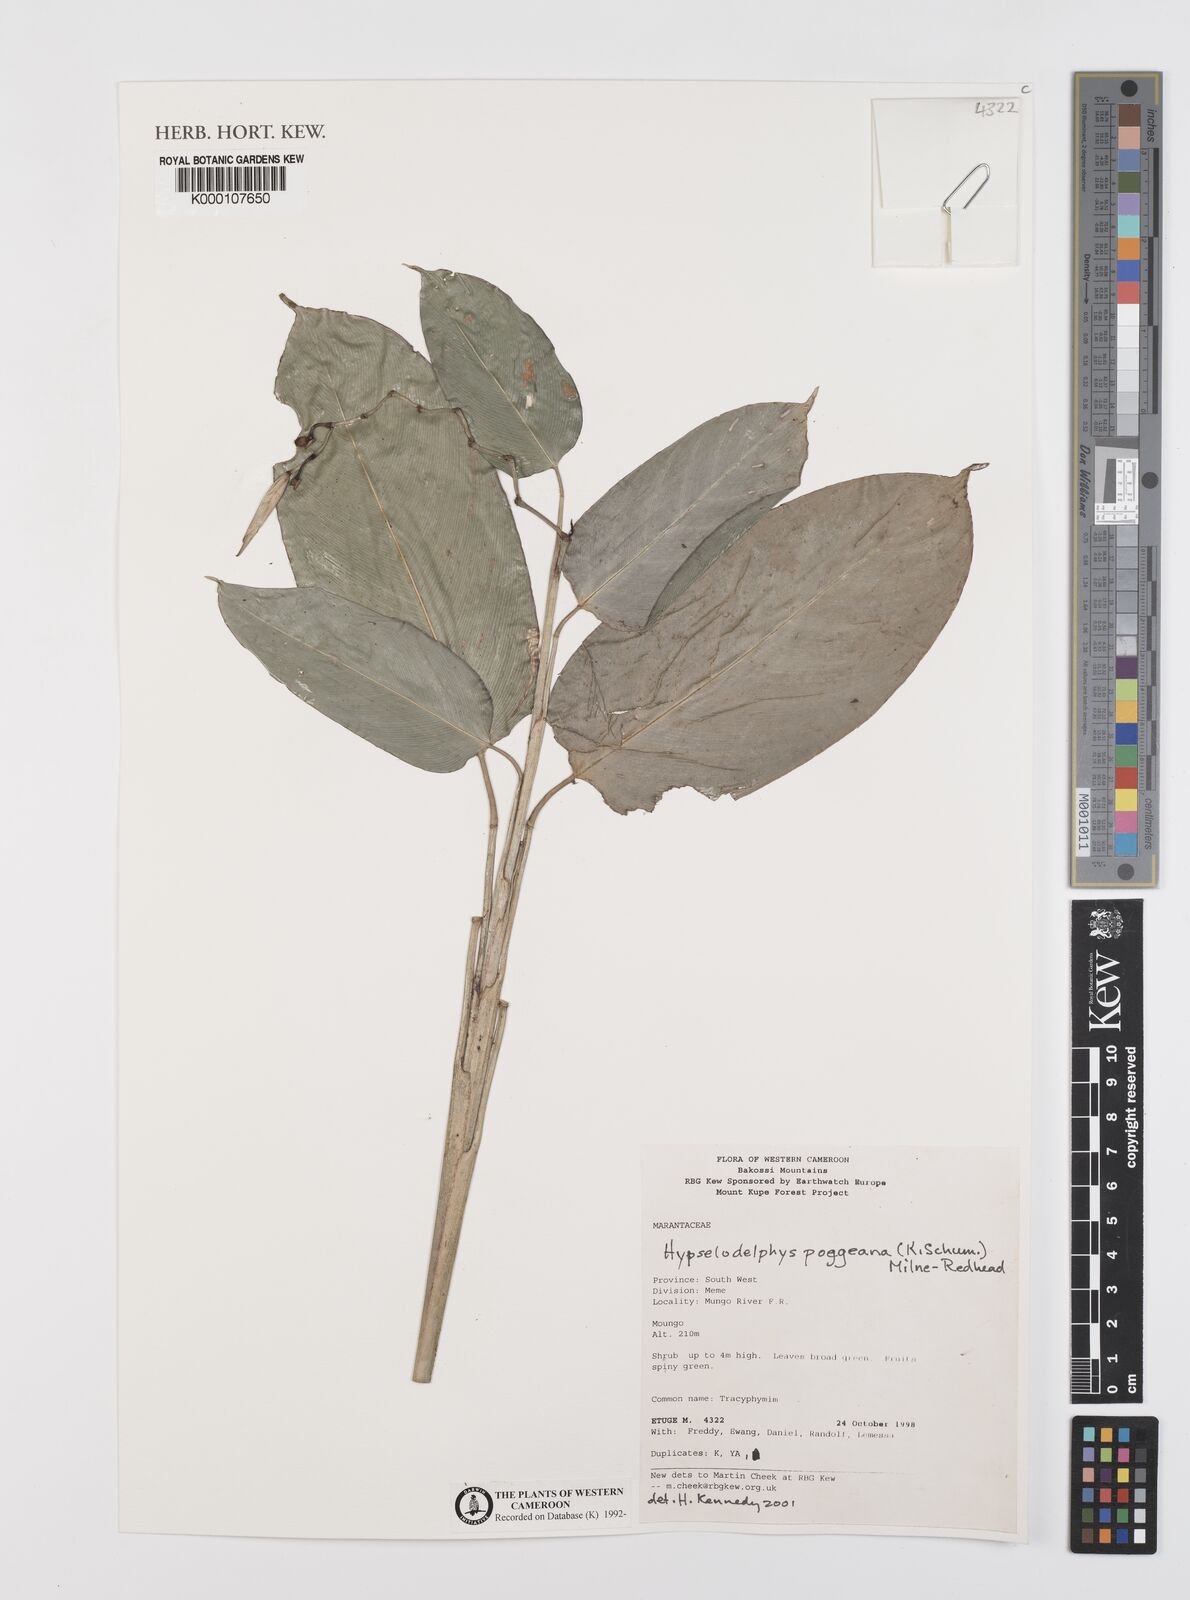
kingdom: Plantae
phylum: Tracheophyta
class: Liliopsida
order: Zingiberales
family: Marantaceae
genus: Hypselodelphys
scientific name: Hypselodelphys poggeana
